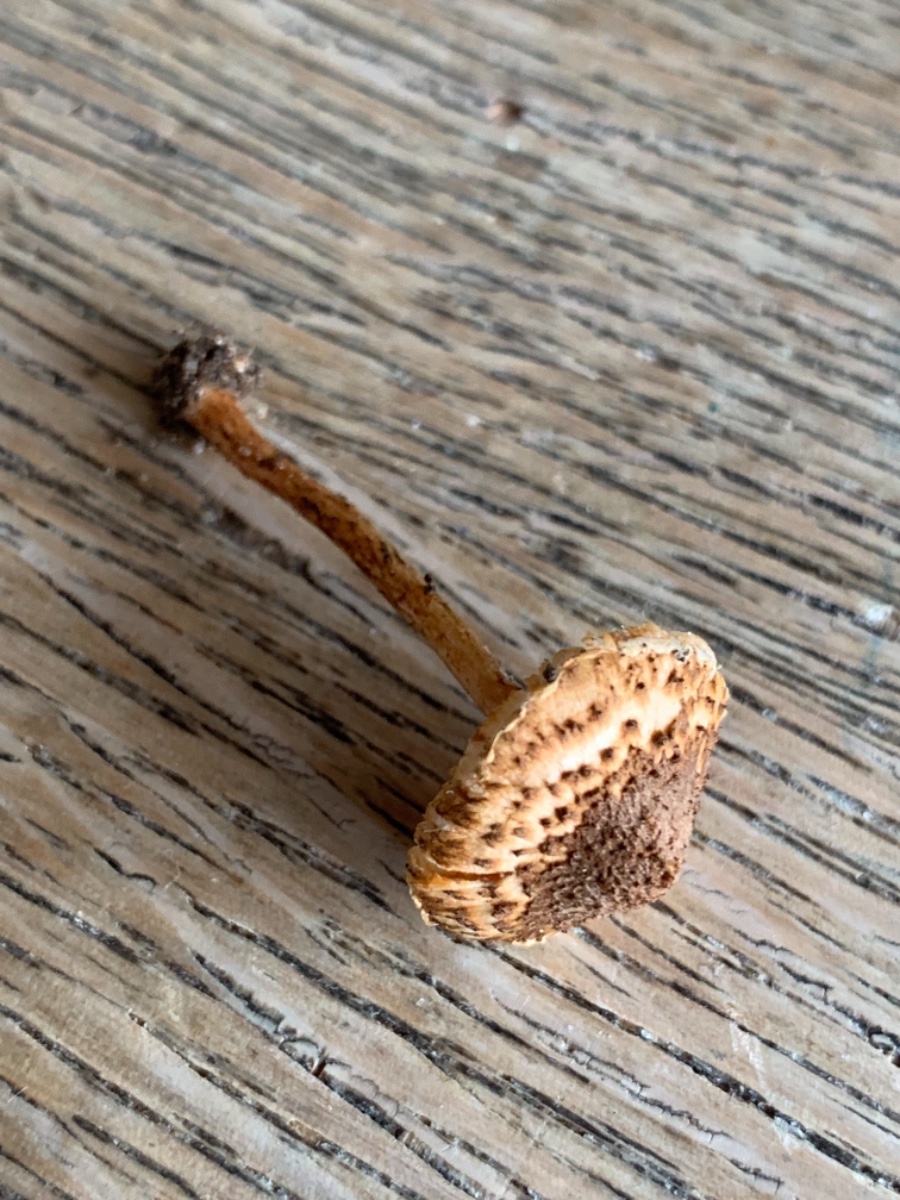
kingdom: Fungi
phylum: Basidiomycota
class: Agaricomycetes
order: Agaricales
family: Agaricaceae
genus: Lepiota
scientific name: Lepiota castanea
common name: kastaniebrun parasolhat
